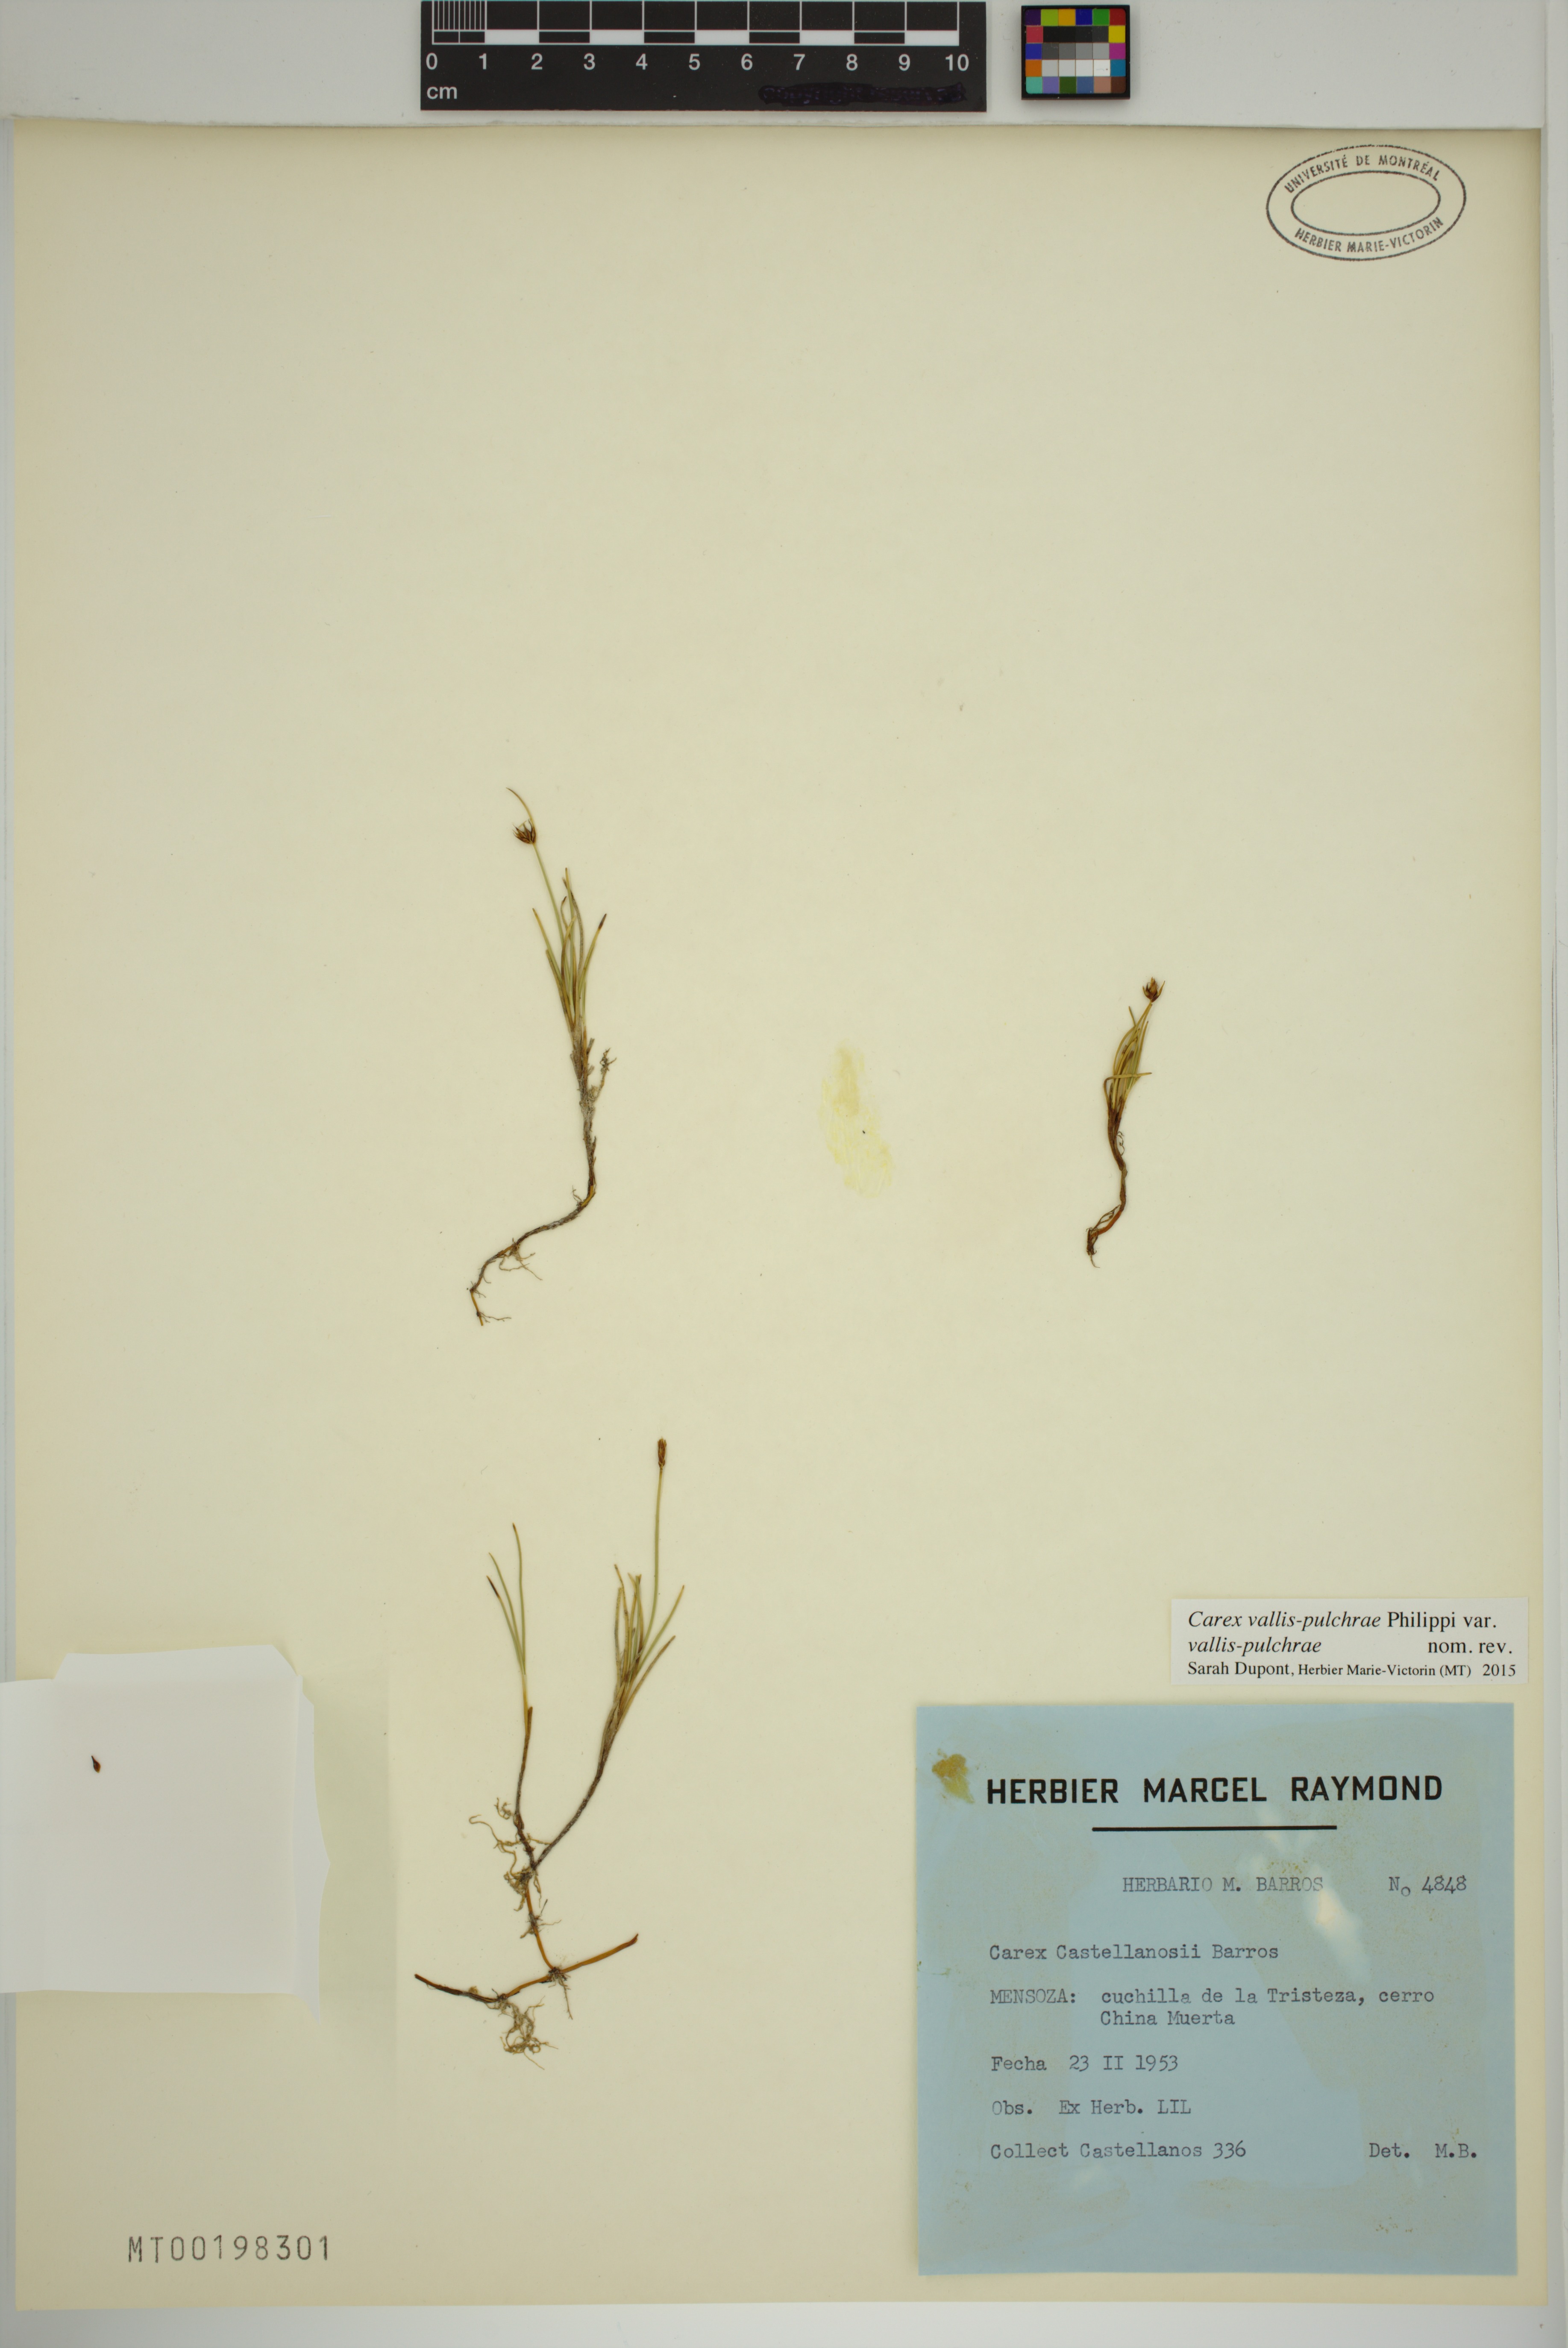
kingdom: Plantae
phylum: Tracheophyta
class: Liliopsida
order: Poales
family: Cyperaceae
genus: Carex
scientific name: Carex vallis-pulchrae
